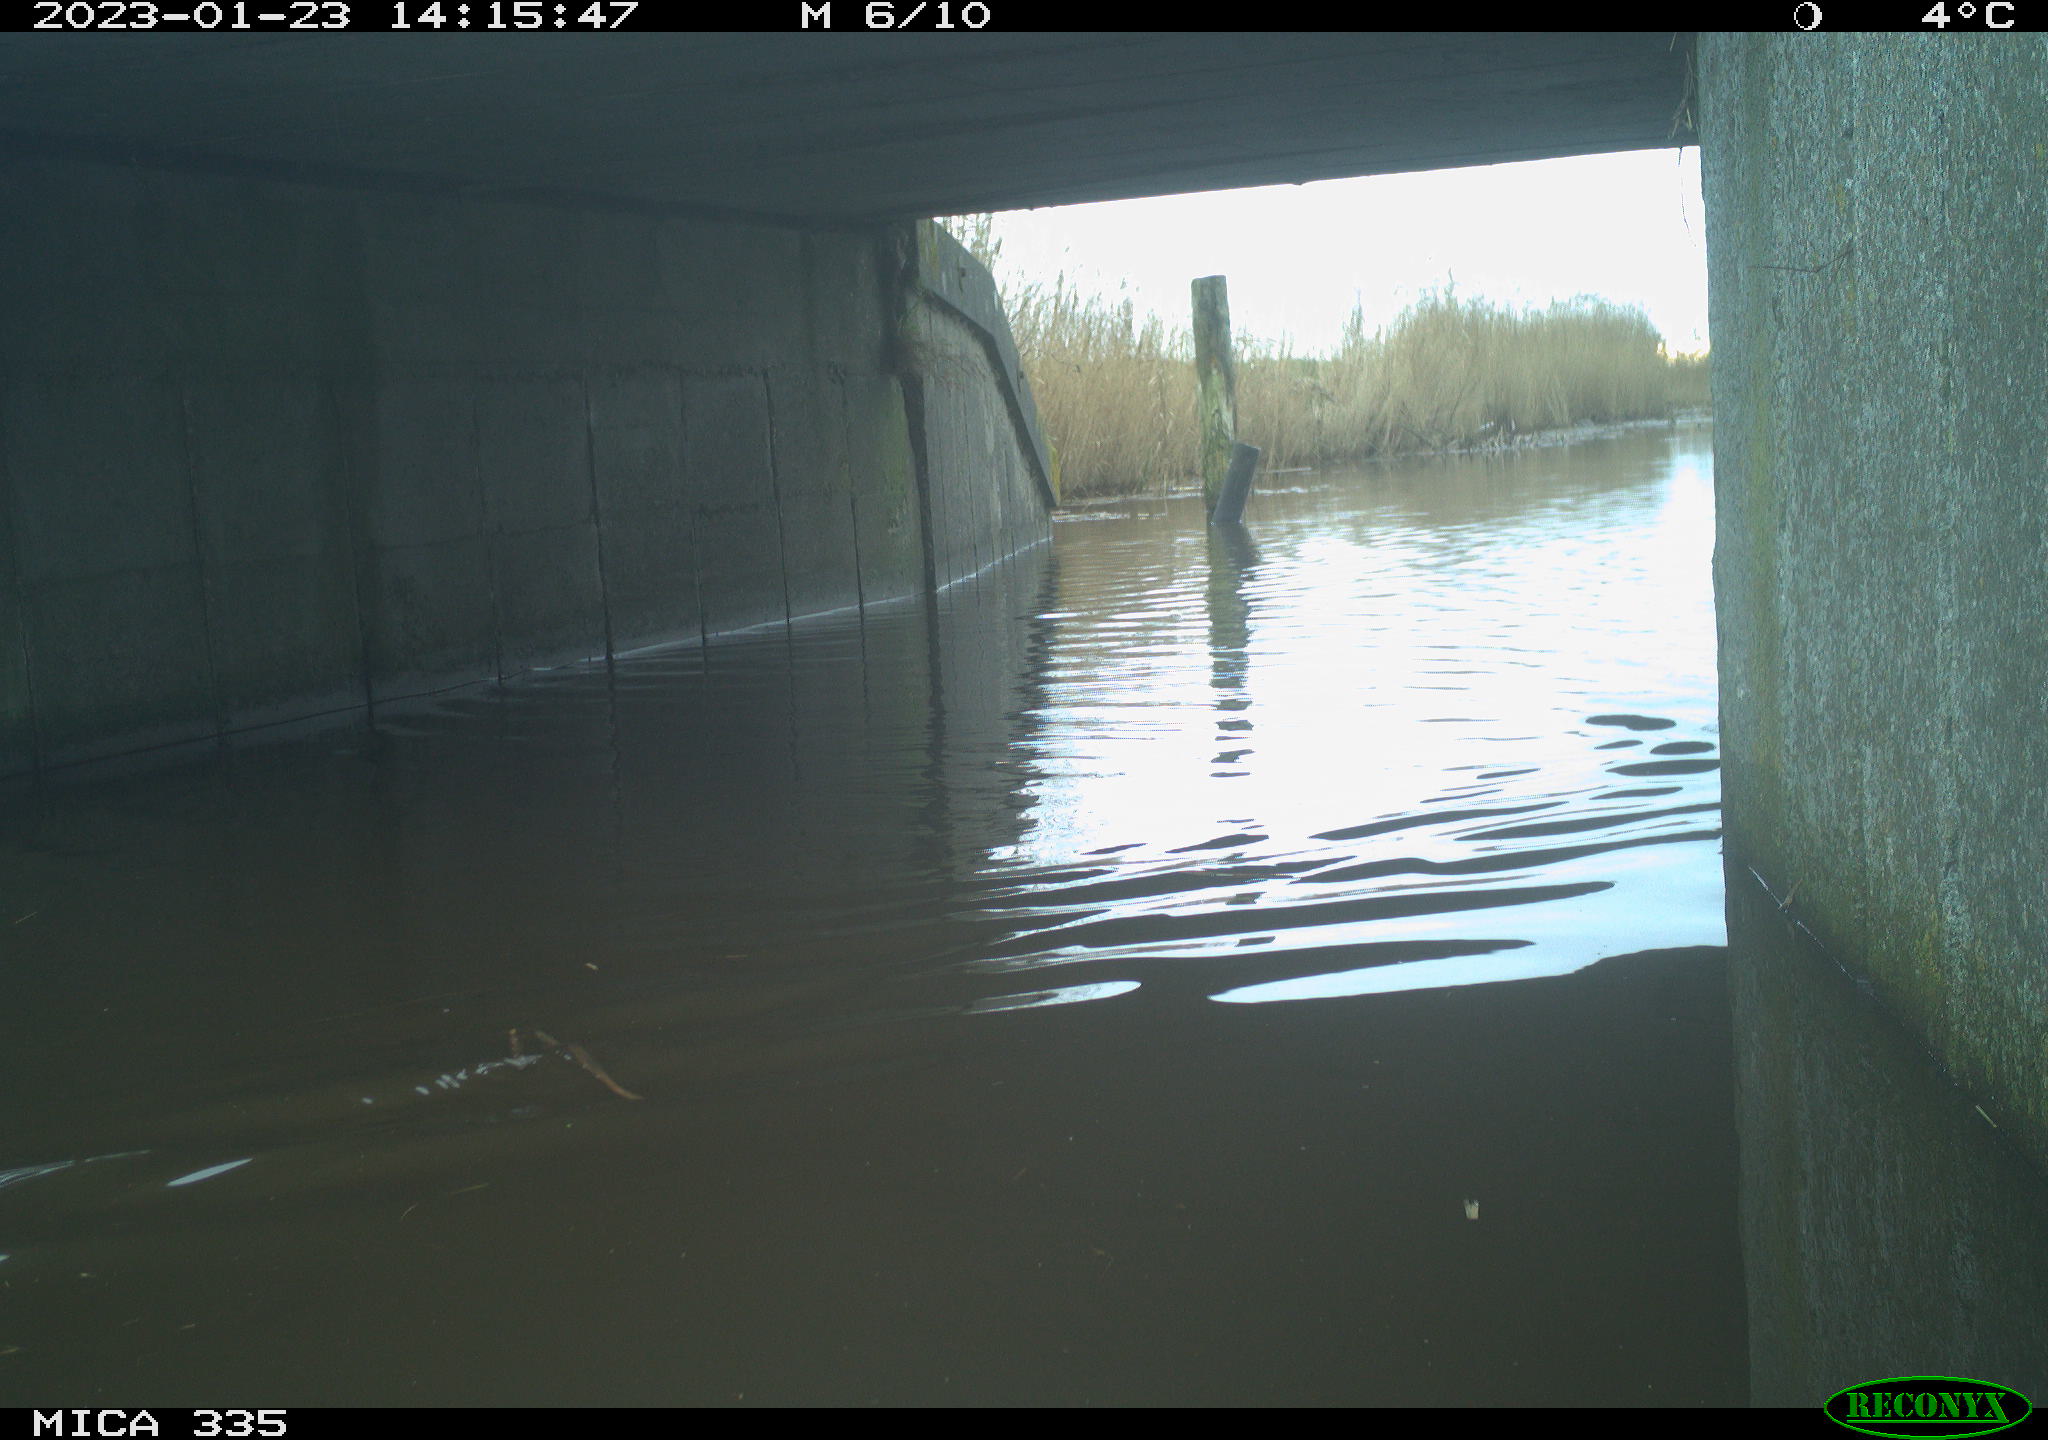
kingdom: Animalia
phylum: Chordata
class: Aves
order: Anseriformes
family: Anatidae
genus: Anas
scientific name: Anas
